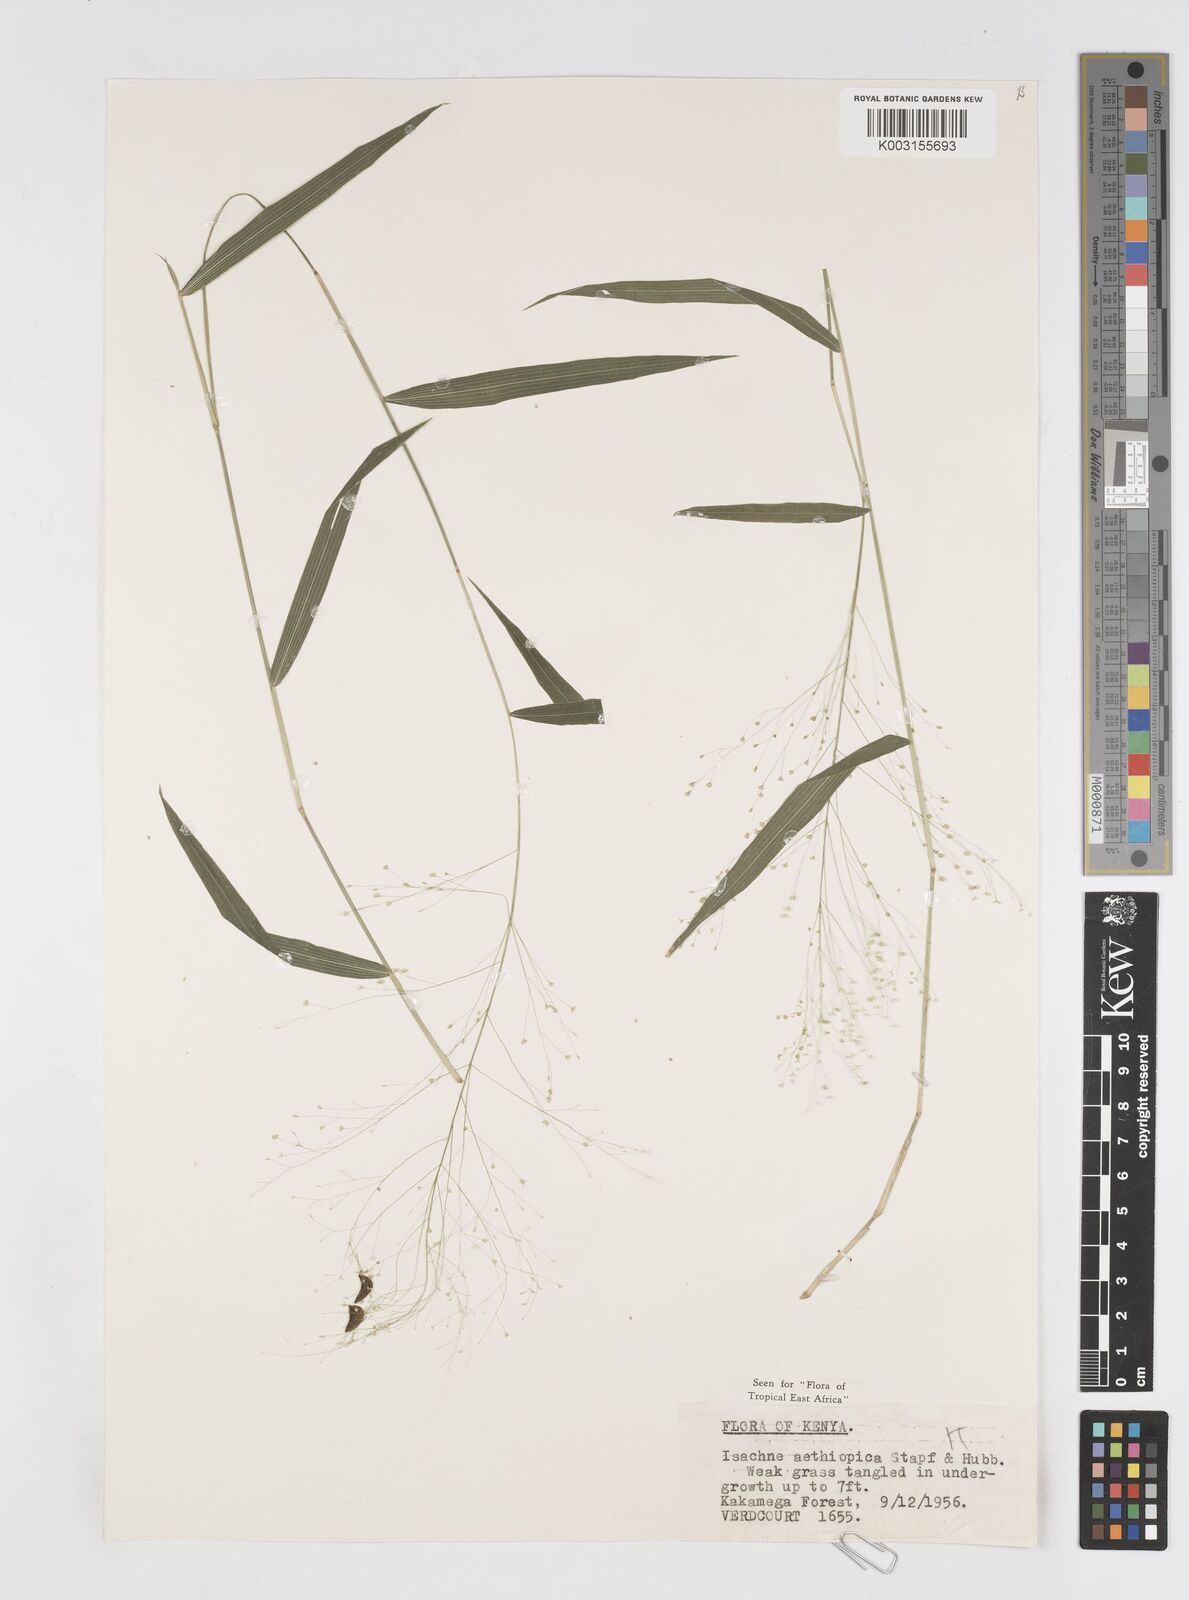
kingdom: Plantae
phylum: Tracheophyta
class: Liliopsida
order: Poales
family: Poaceae
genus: Isachne
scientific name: Isachne mauritiana
